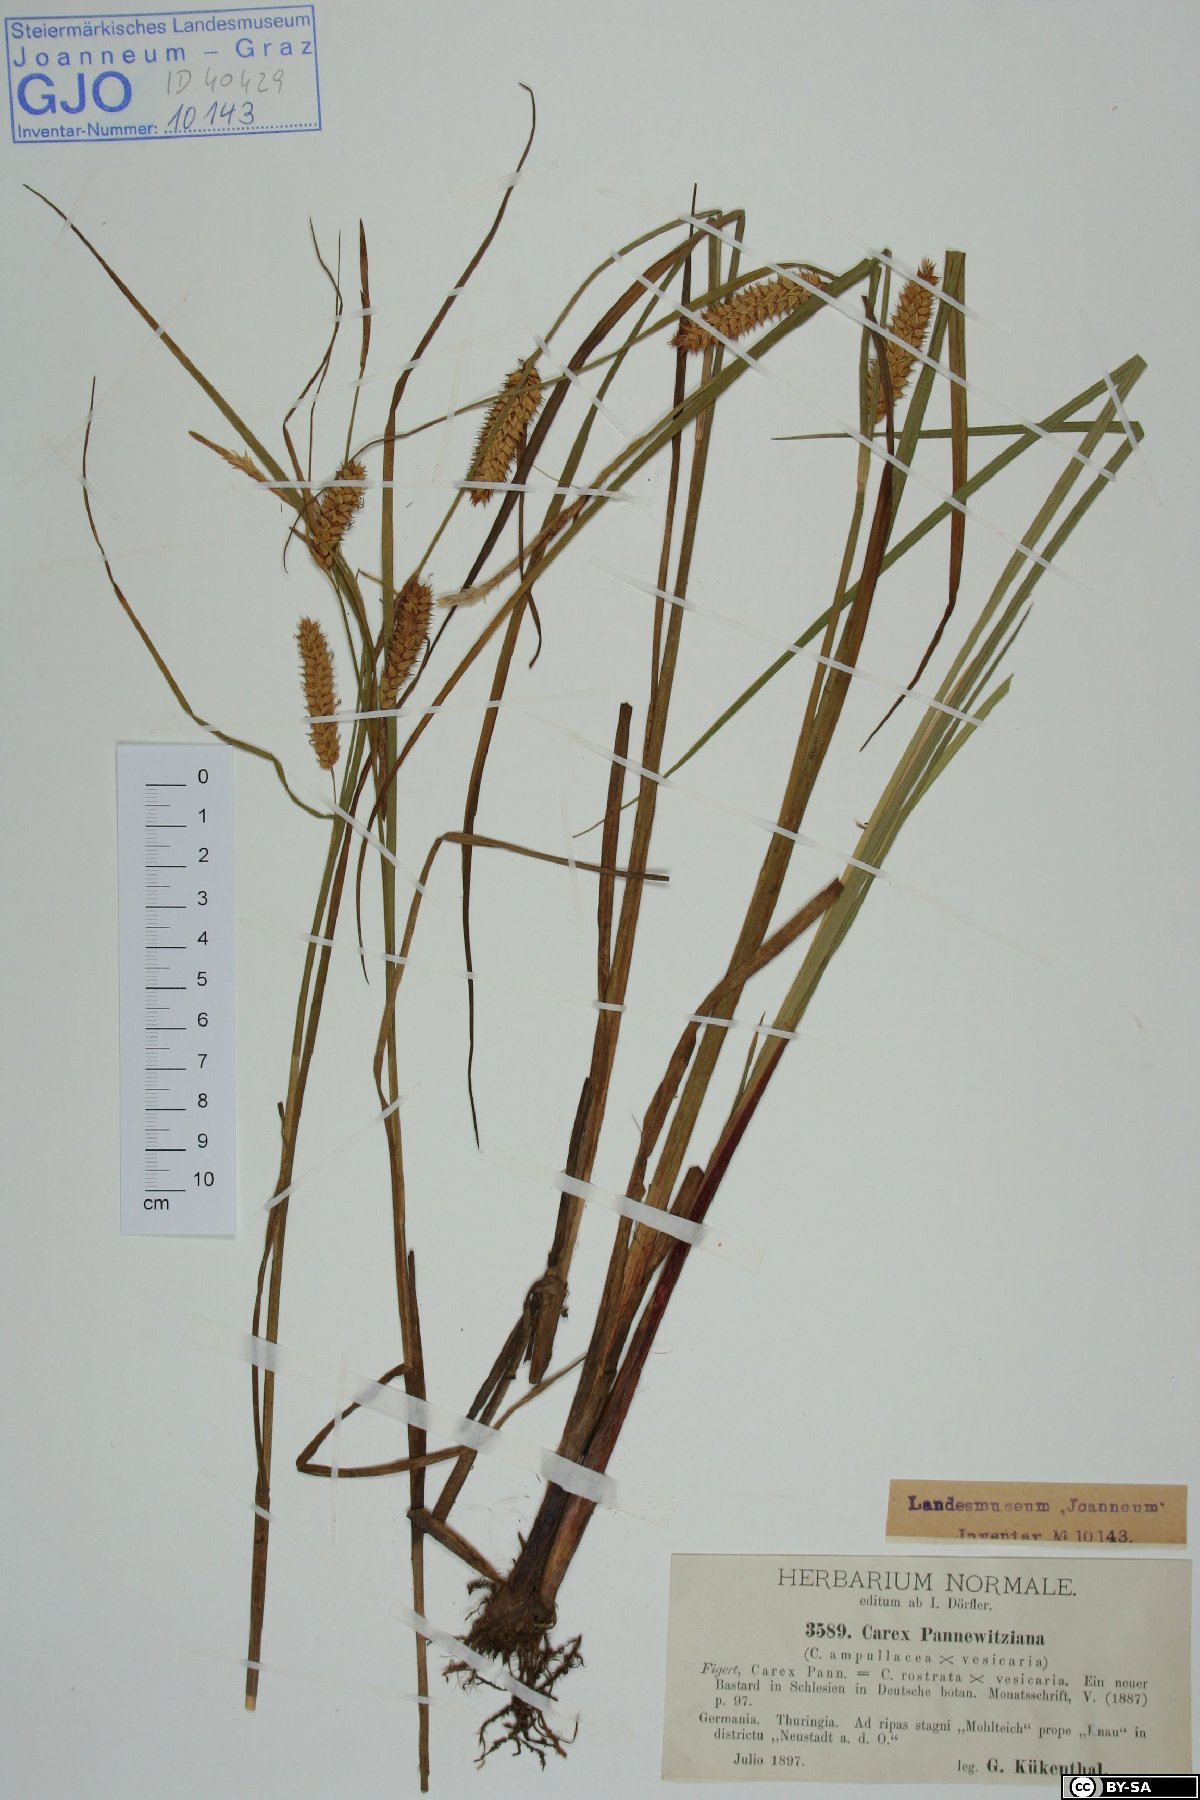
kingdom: Plantae
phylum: Tracheophyta
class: Liliopsida
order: Poales
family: Cyperaceae
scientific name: Cyperaceae
